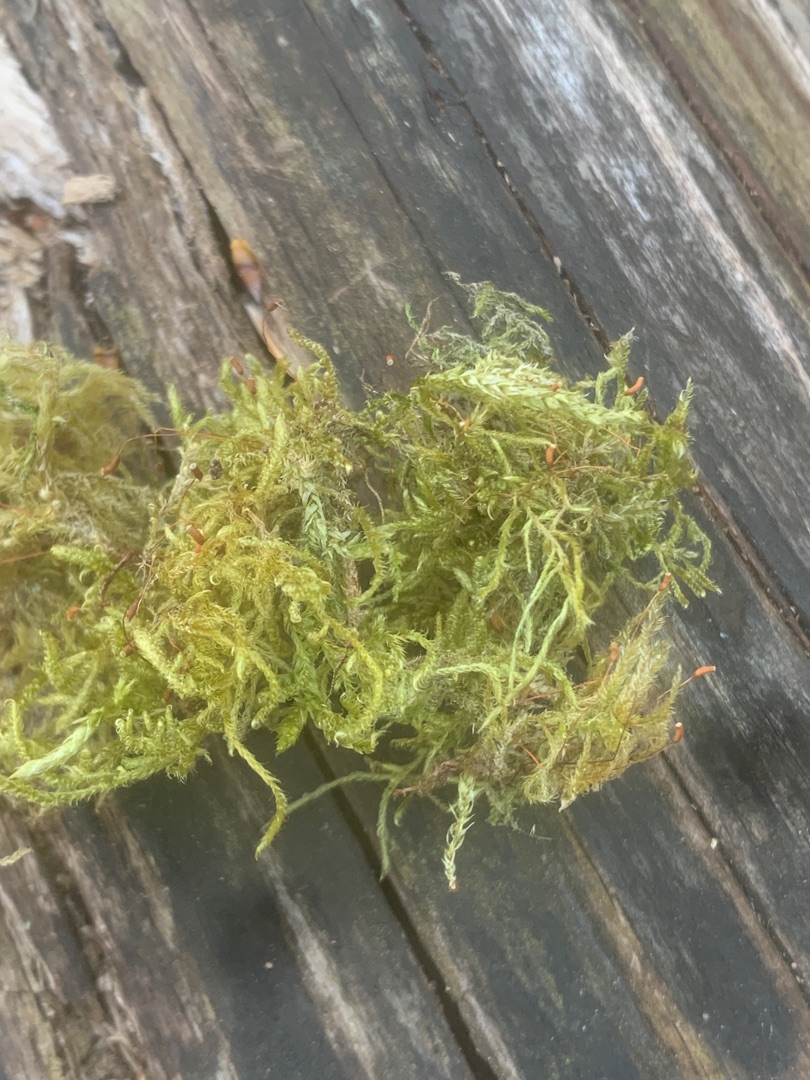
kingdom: Plantae
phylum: Bryophyta
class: Bryopsida
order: Hypnales
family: Hypnaceae
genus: Hypnum
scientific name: Hypnum cupressiforme
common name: Almindelig cypresmos
